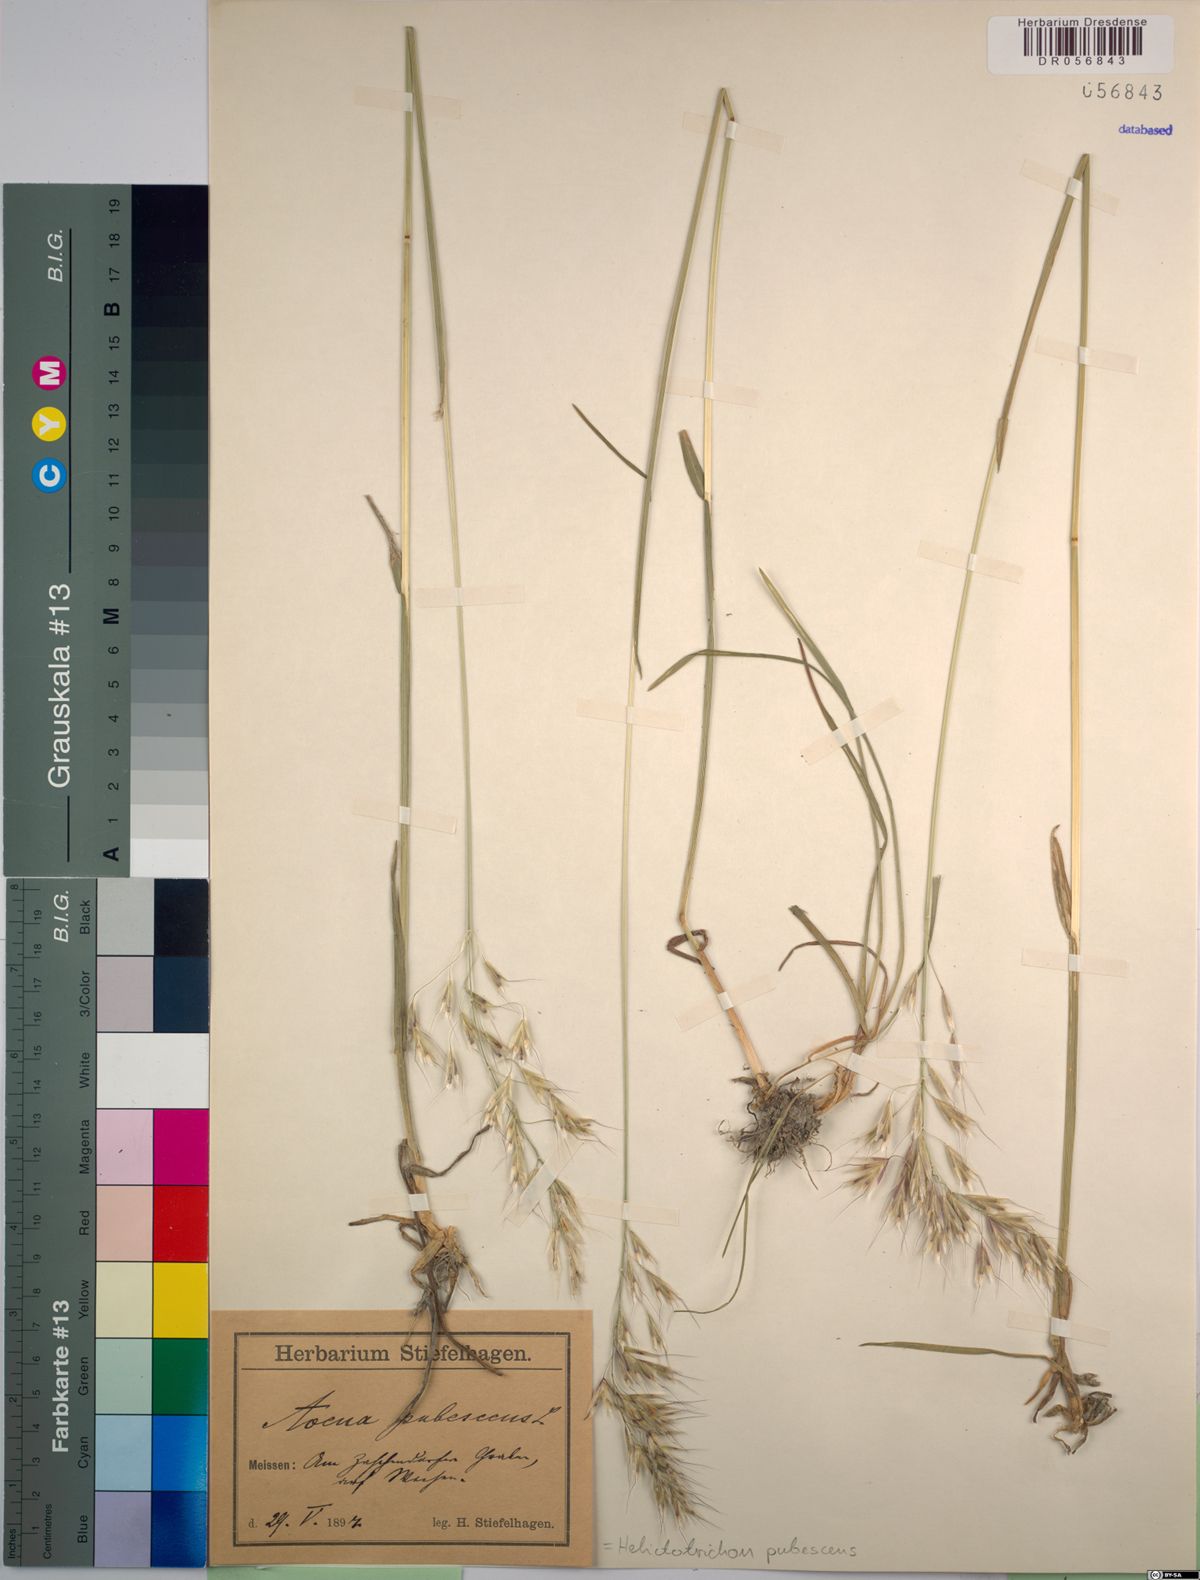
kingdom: Plantae
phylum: Tracheophyta
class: Liliopsida
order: Poales
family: Poaceae
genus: Avenula
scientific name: Avenula pubescens
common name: Downy alpine oatgrass
